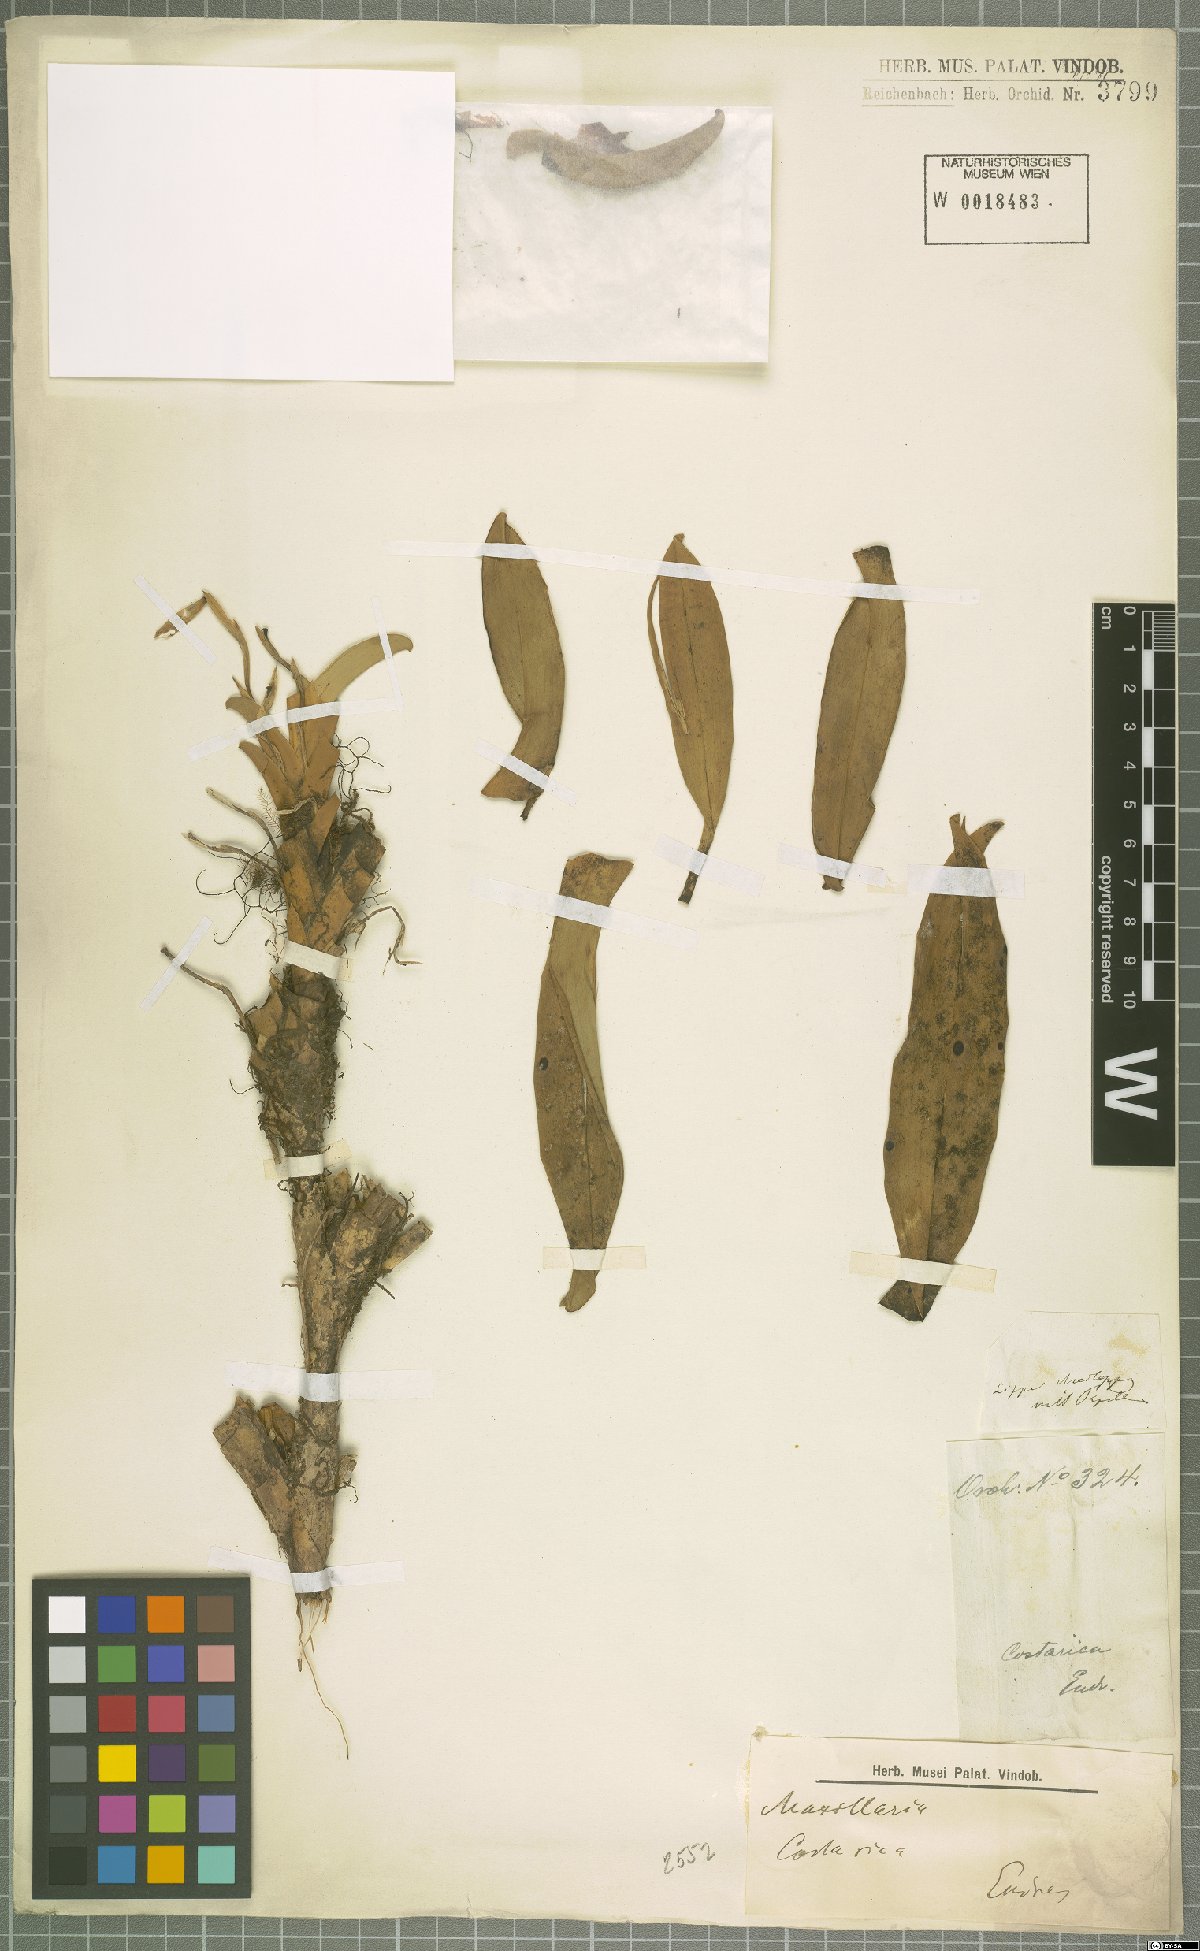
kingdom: Plantae
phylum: Tracheophyta
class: Liliopsida
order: Asparagales
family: Orchidaceae
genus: Maxillaria
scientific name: Maxillaria
